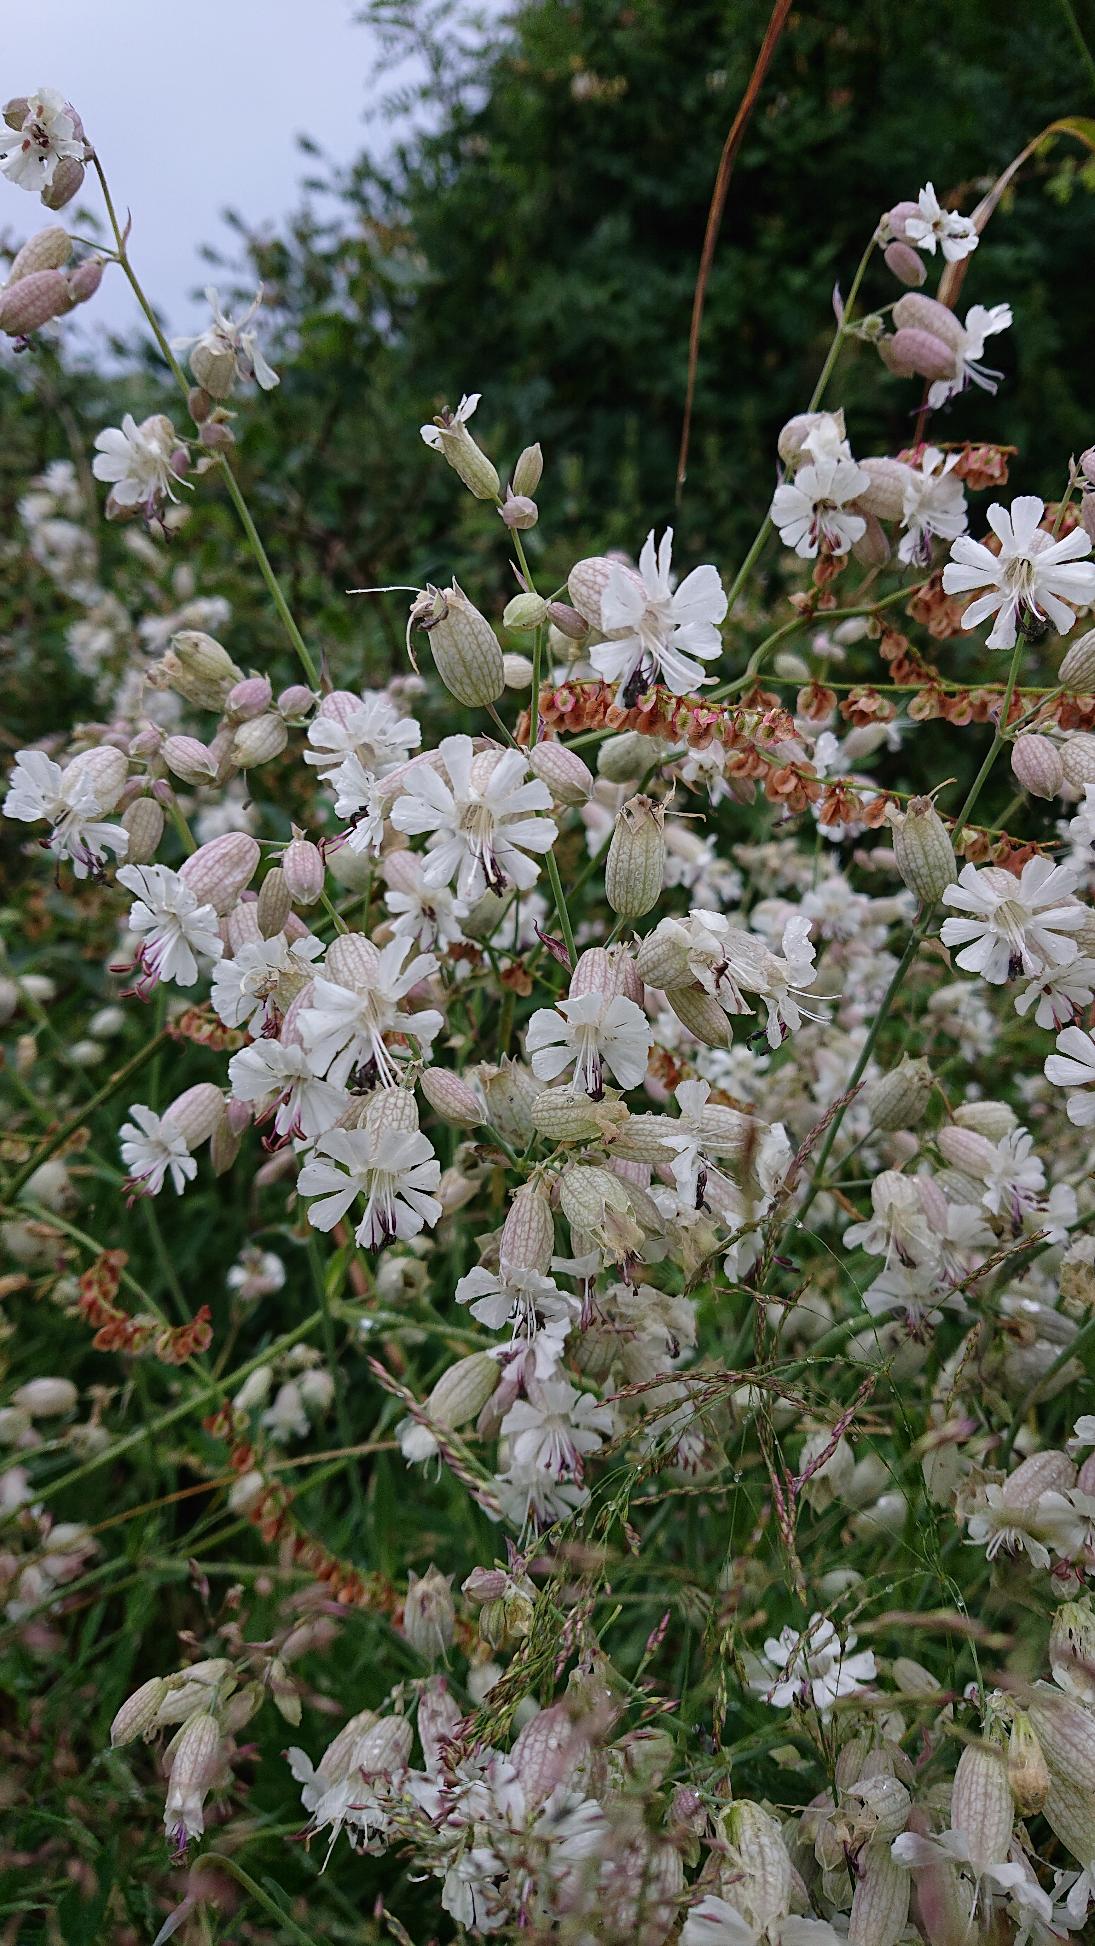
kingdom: Plantae
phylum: Tracheophyta
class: Magnoliopsida
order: Caryophyllales
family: Caryophyllaceae
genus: Silene
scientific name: Silene vulgaris
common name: Blæresmælde
